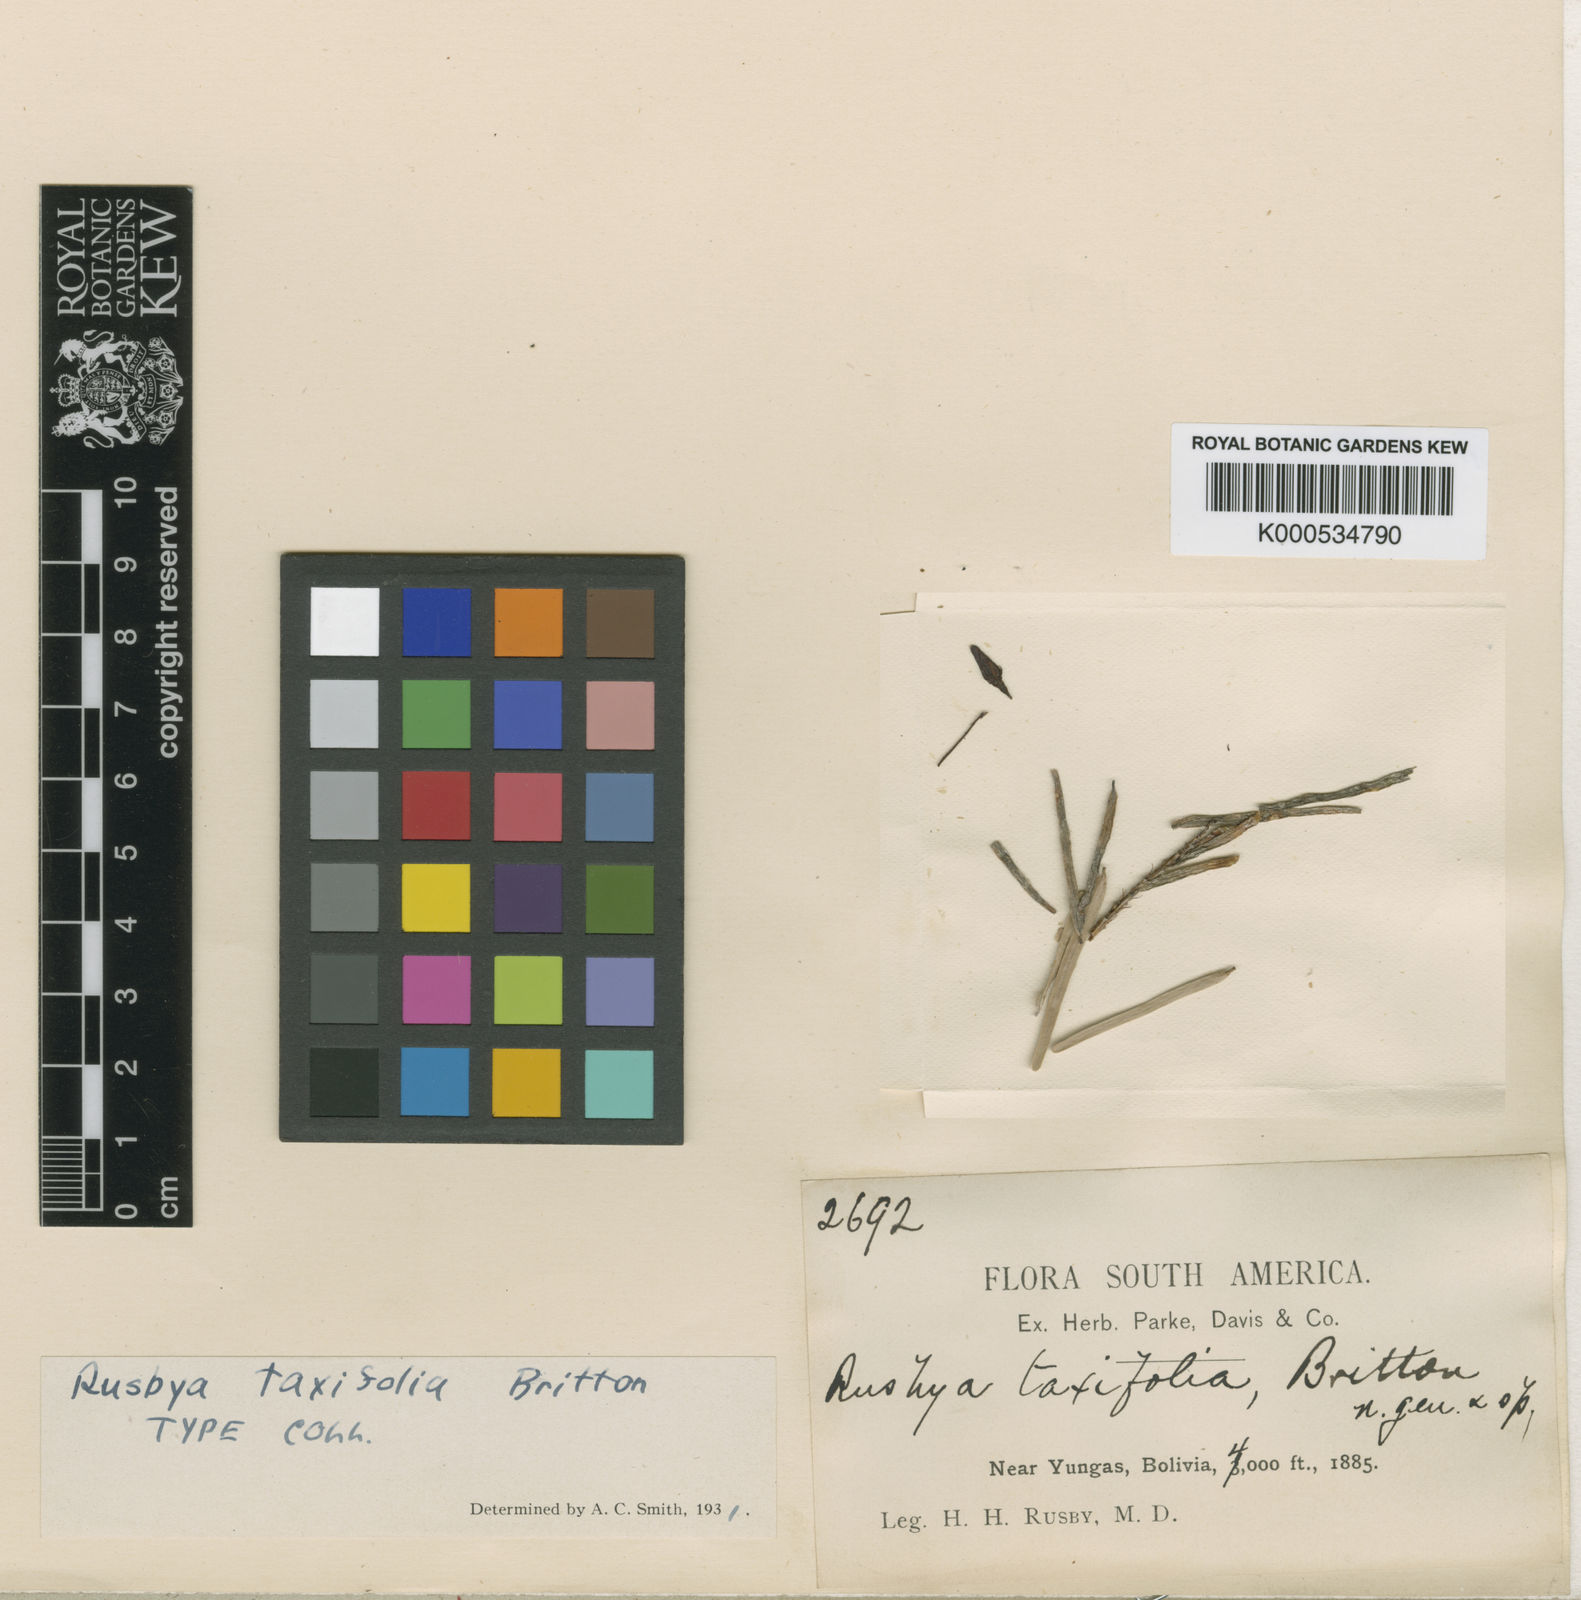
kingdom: Plantae
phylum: Tracheophyta
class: Magnoliopsida
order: Ericales
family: Ericaceae
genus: Rusbya
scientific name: Rusbya taxifolia
